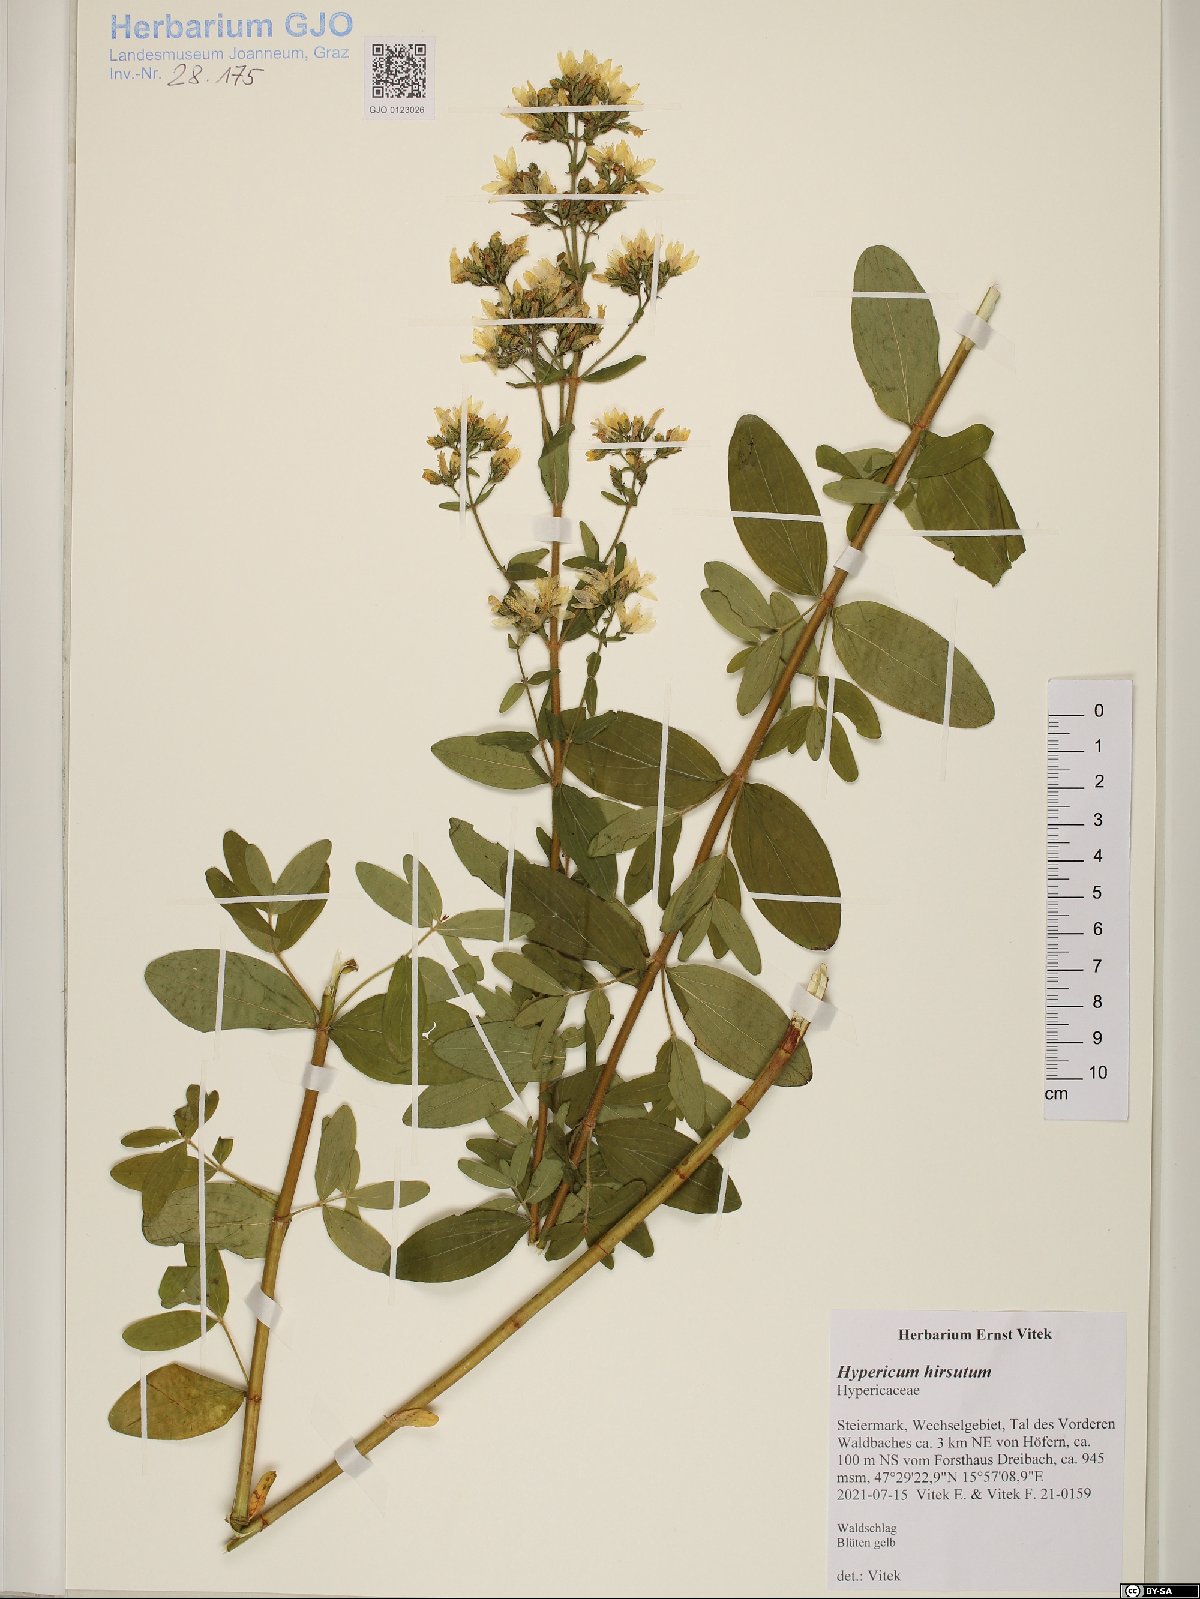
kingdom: Plantae
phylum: Tracheophyta
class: Magnoliopsida
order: Malpighiales
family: Hypericaceae
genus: Hypericum
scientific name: Hypericum hirsutum
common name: Hairy st. john's-wort
